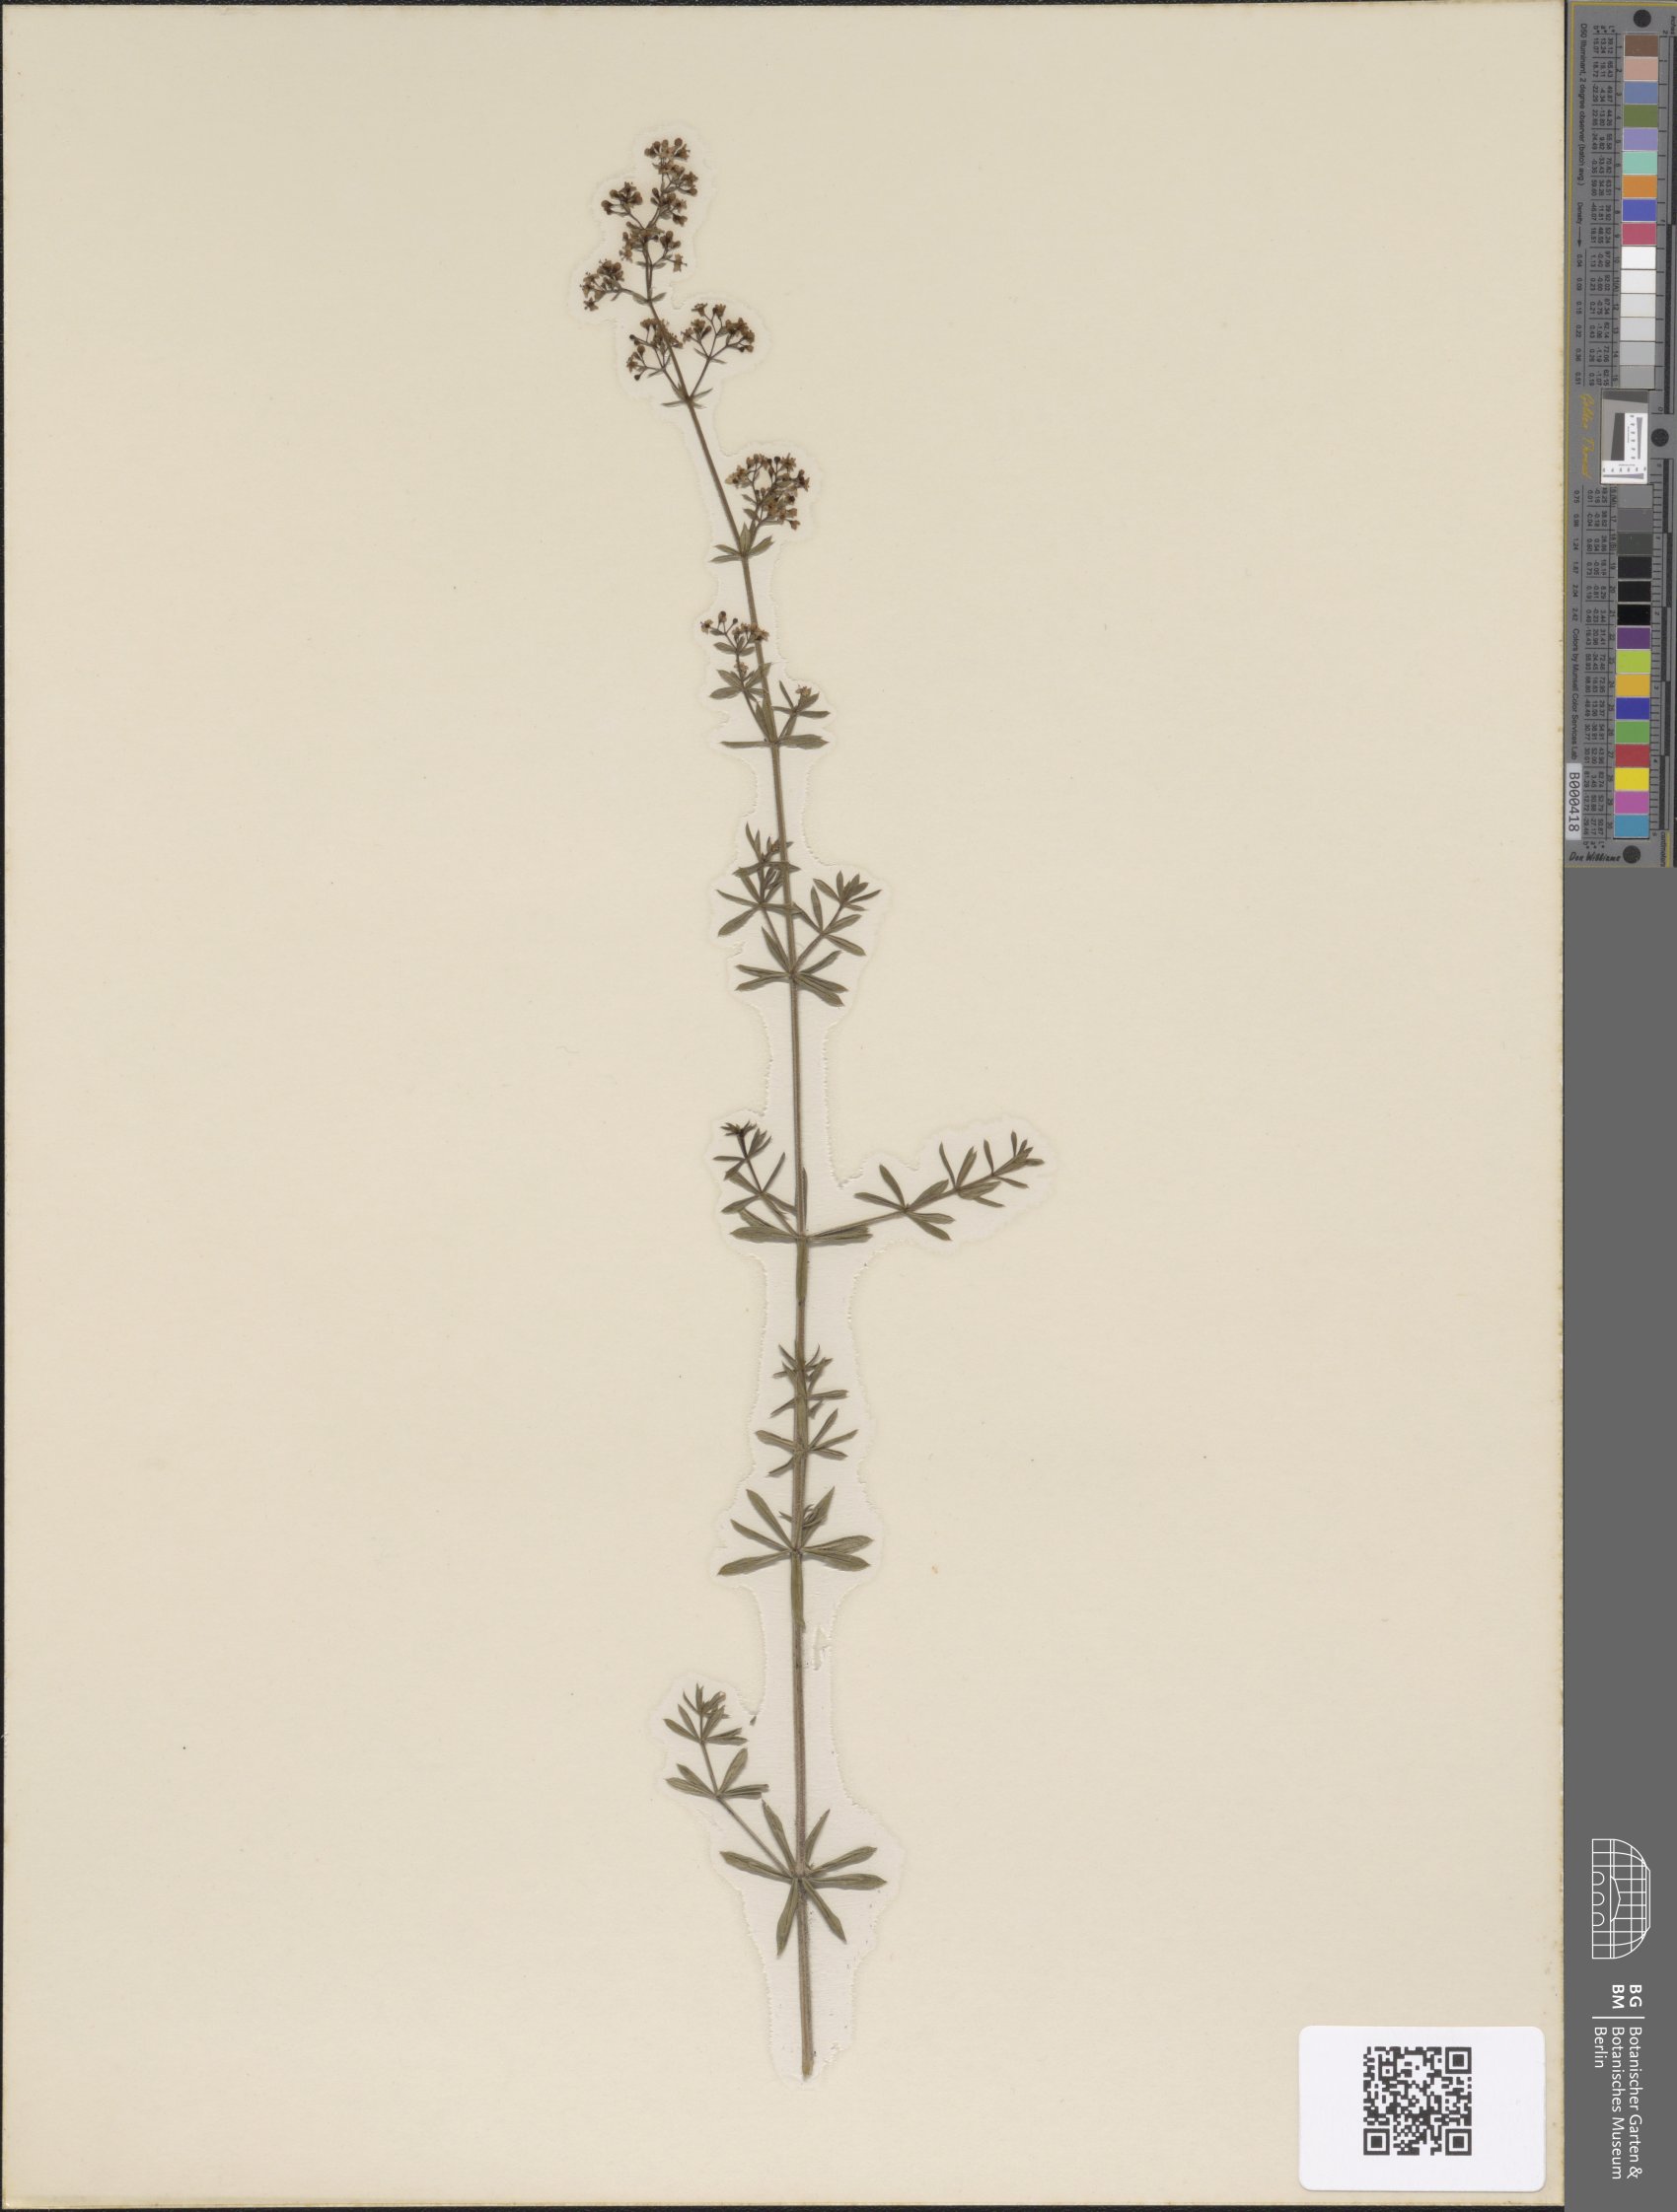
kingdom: Plantae
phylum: Tracheophyta
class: Magnoliopsida
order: Gentianales
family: Rubiaceae
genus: Galium
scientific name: Galium mollugo
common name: Hedge bedstraw
